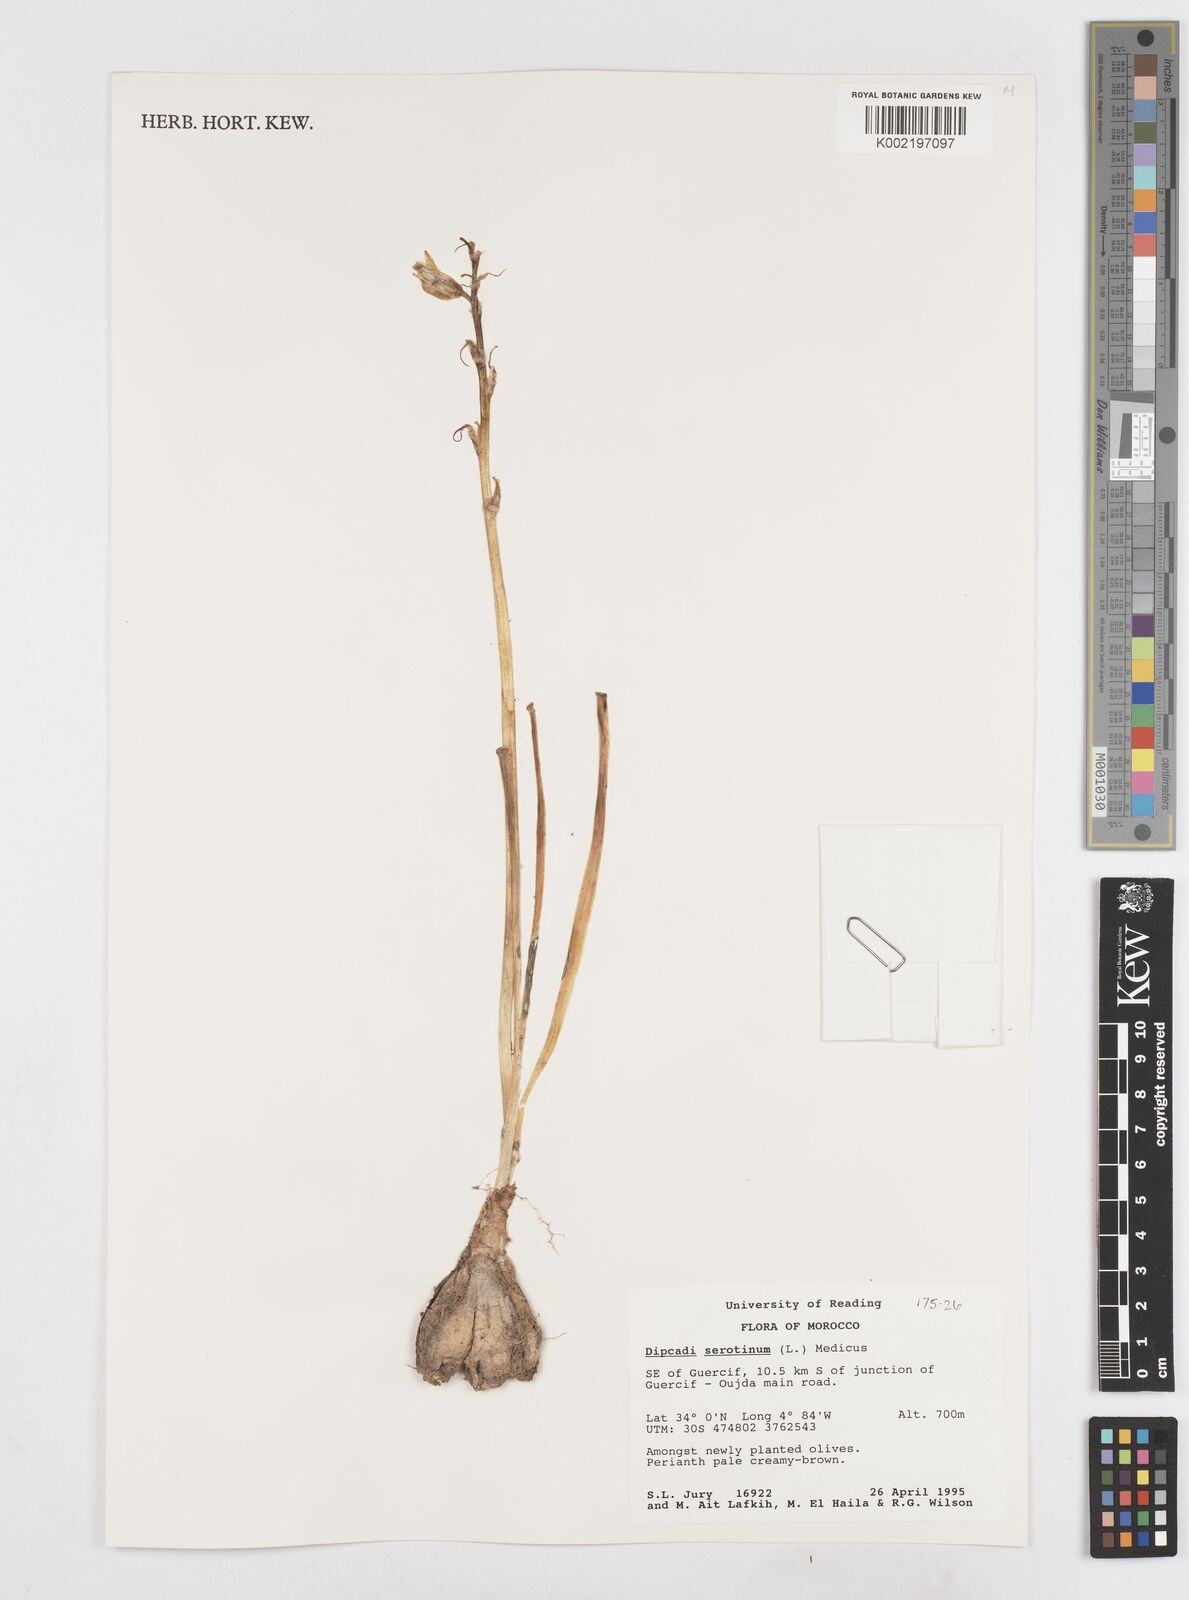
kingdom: Plantae
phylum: Tracheophyta
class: Liliopsida
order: Asparagales
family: Asparagaceae
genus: Dipcadi
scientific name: Dipcadi serotinum
